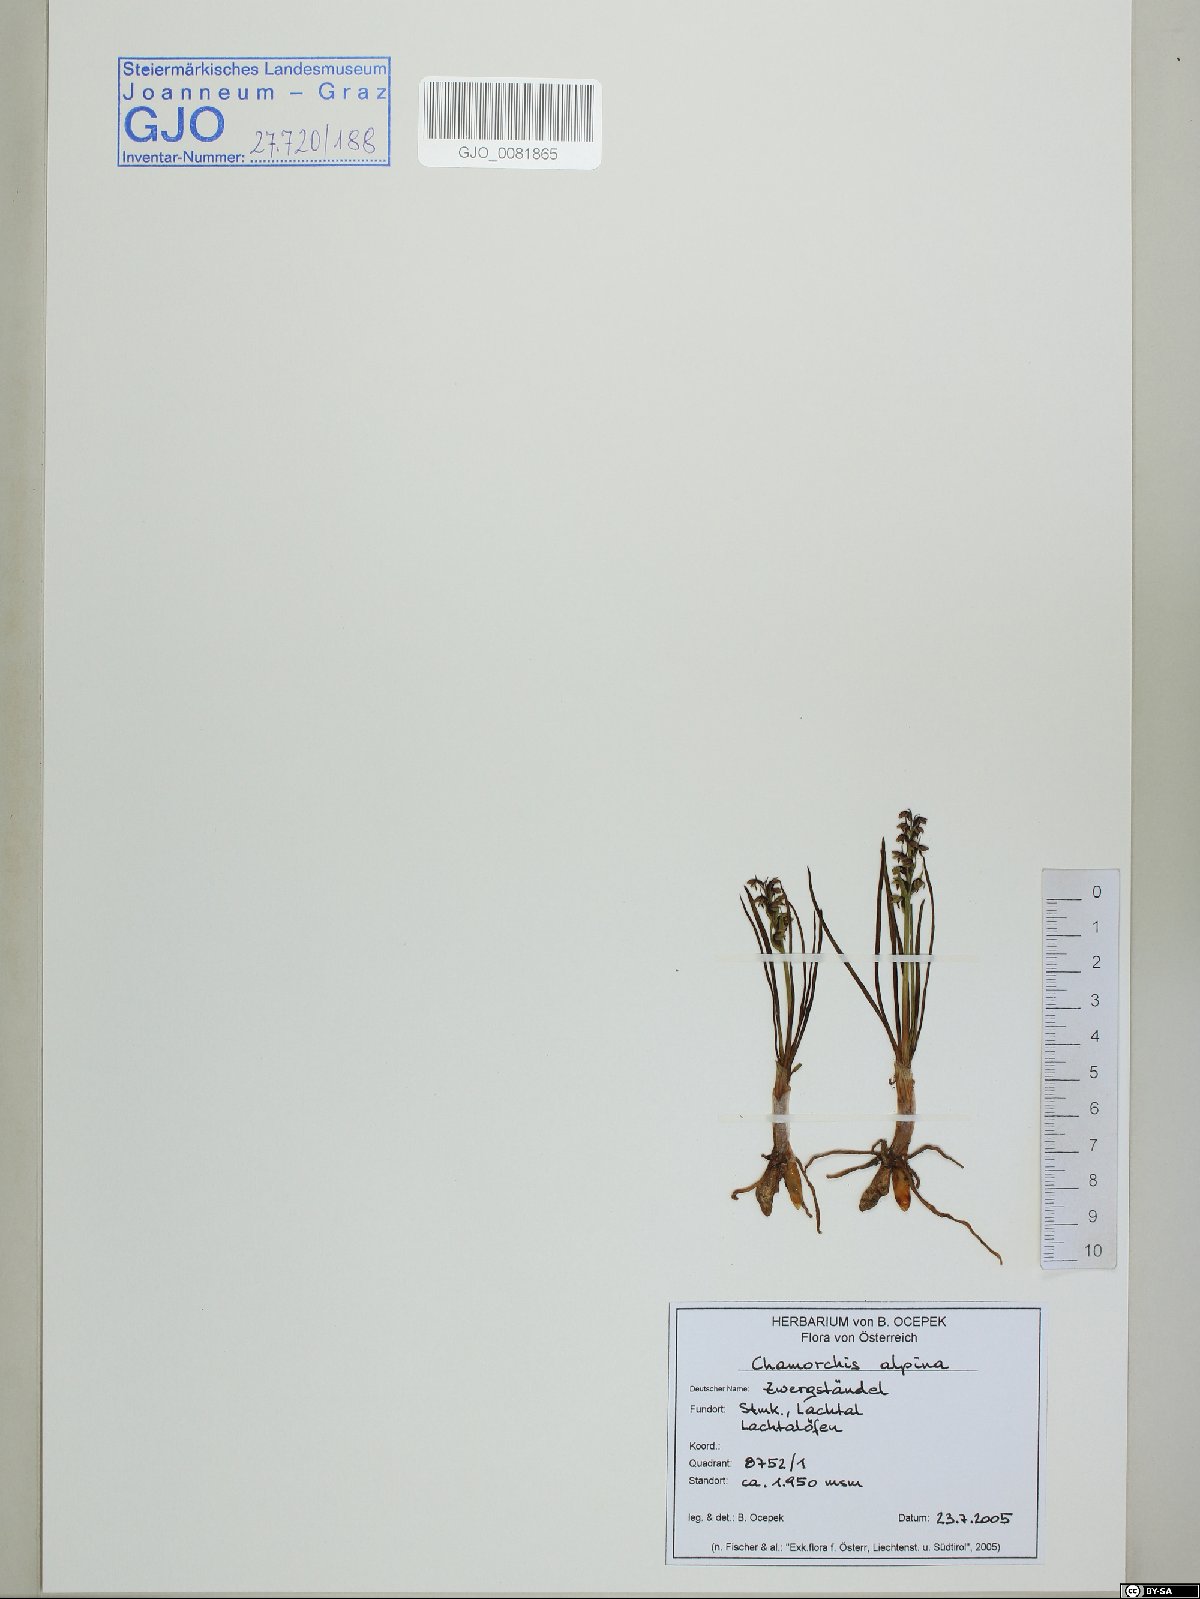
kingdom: Plantae
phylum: Tracheophyta
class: Liliopsida
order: Asparagales
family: Orchidaceae
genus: Chamorchis
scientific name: Chamorchis alpina
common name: Alpine chamorchis
